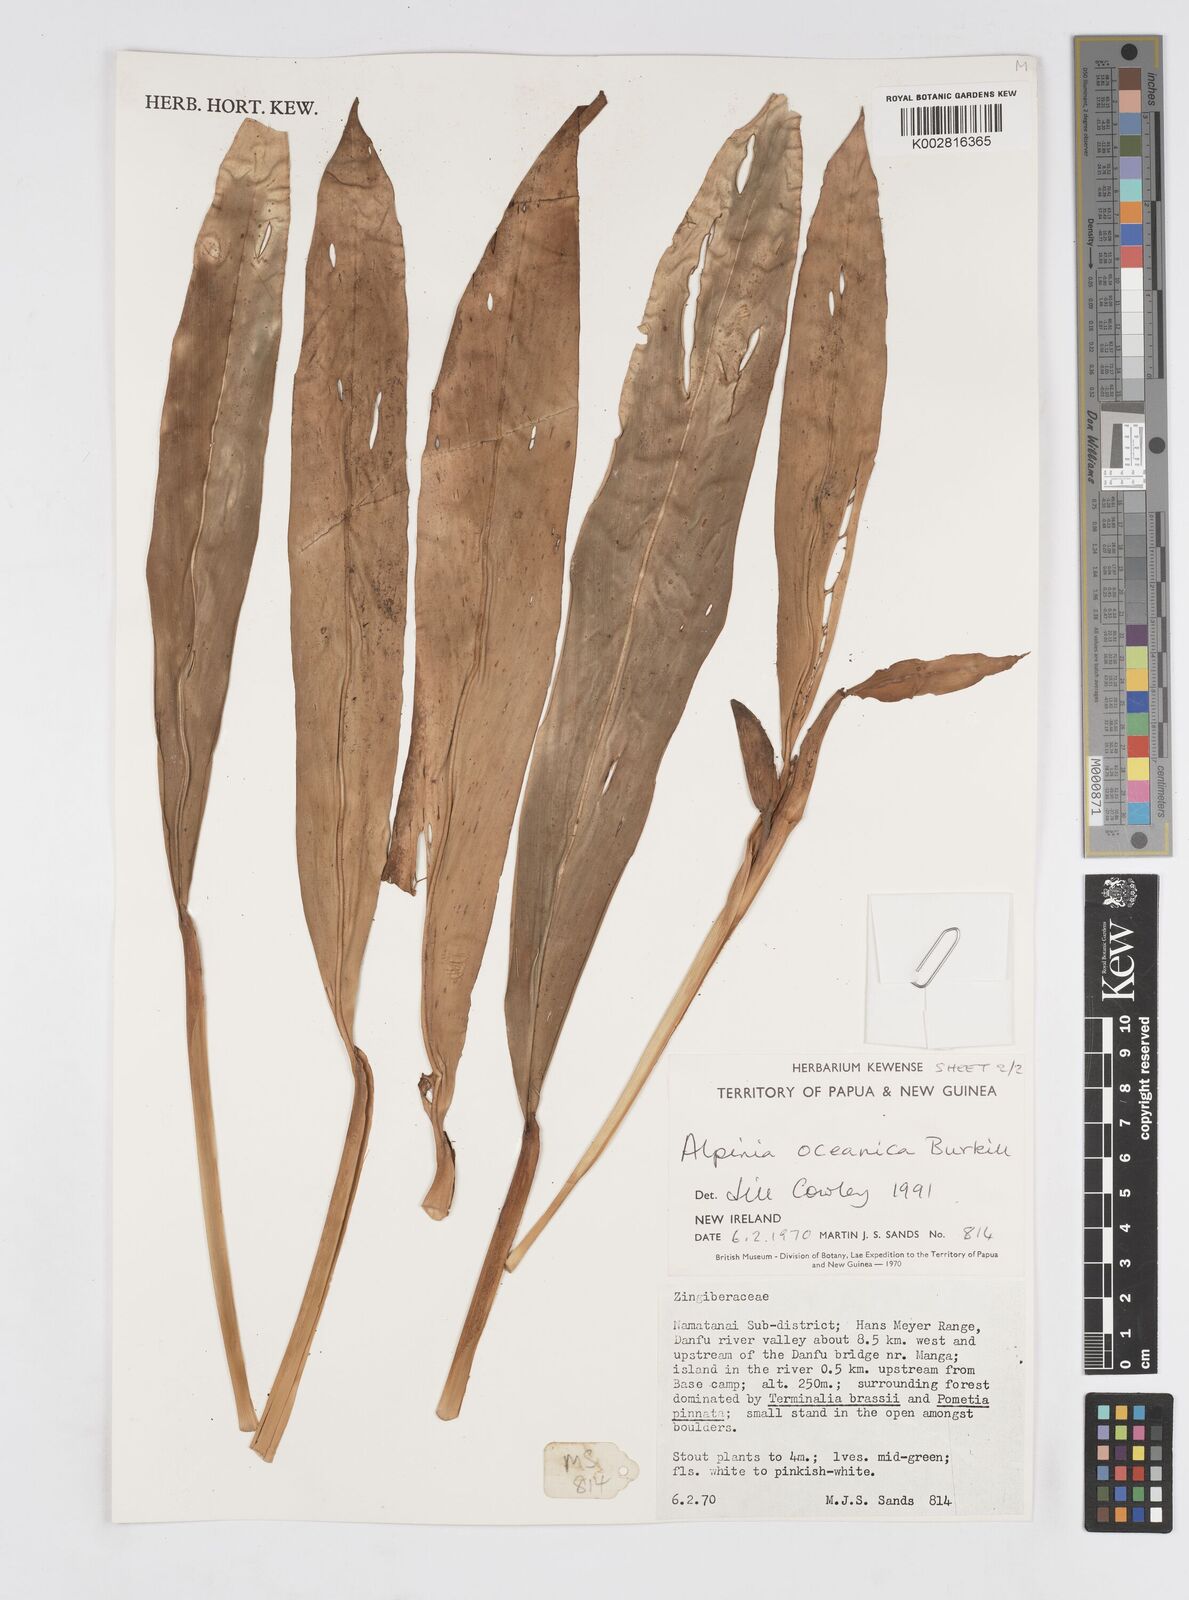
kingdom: Plantae
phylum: Tracheophyta
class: Liliopsida
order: Zingiberales
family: Zingiberaceae
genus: Alpinia
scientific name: Alpinia oceanica
